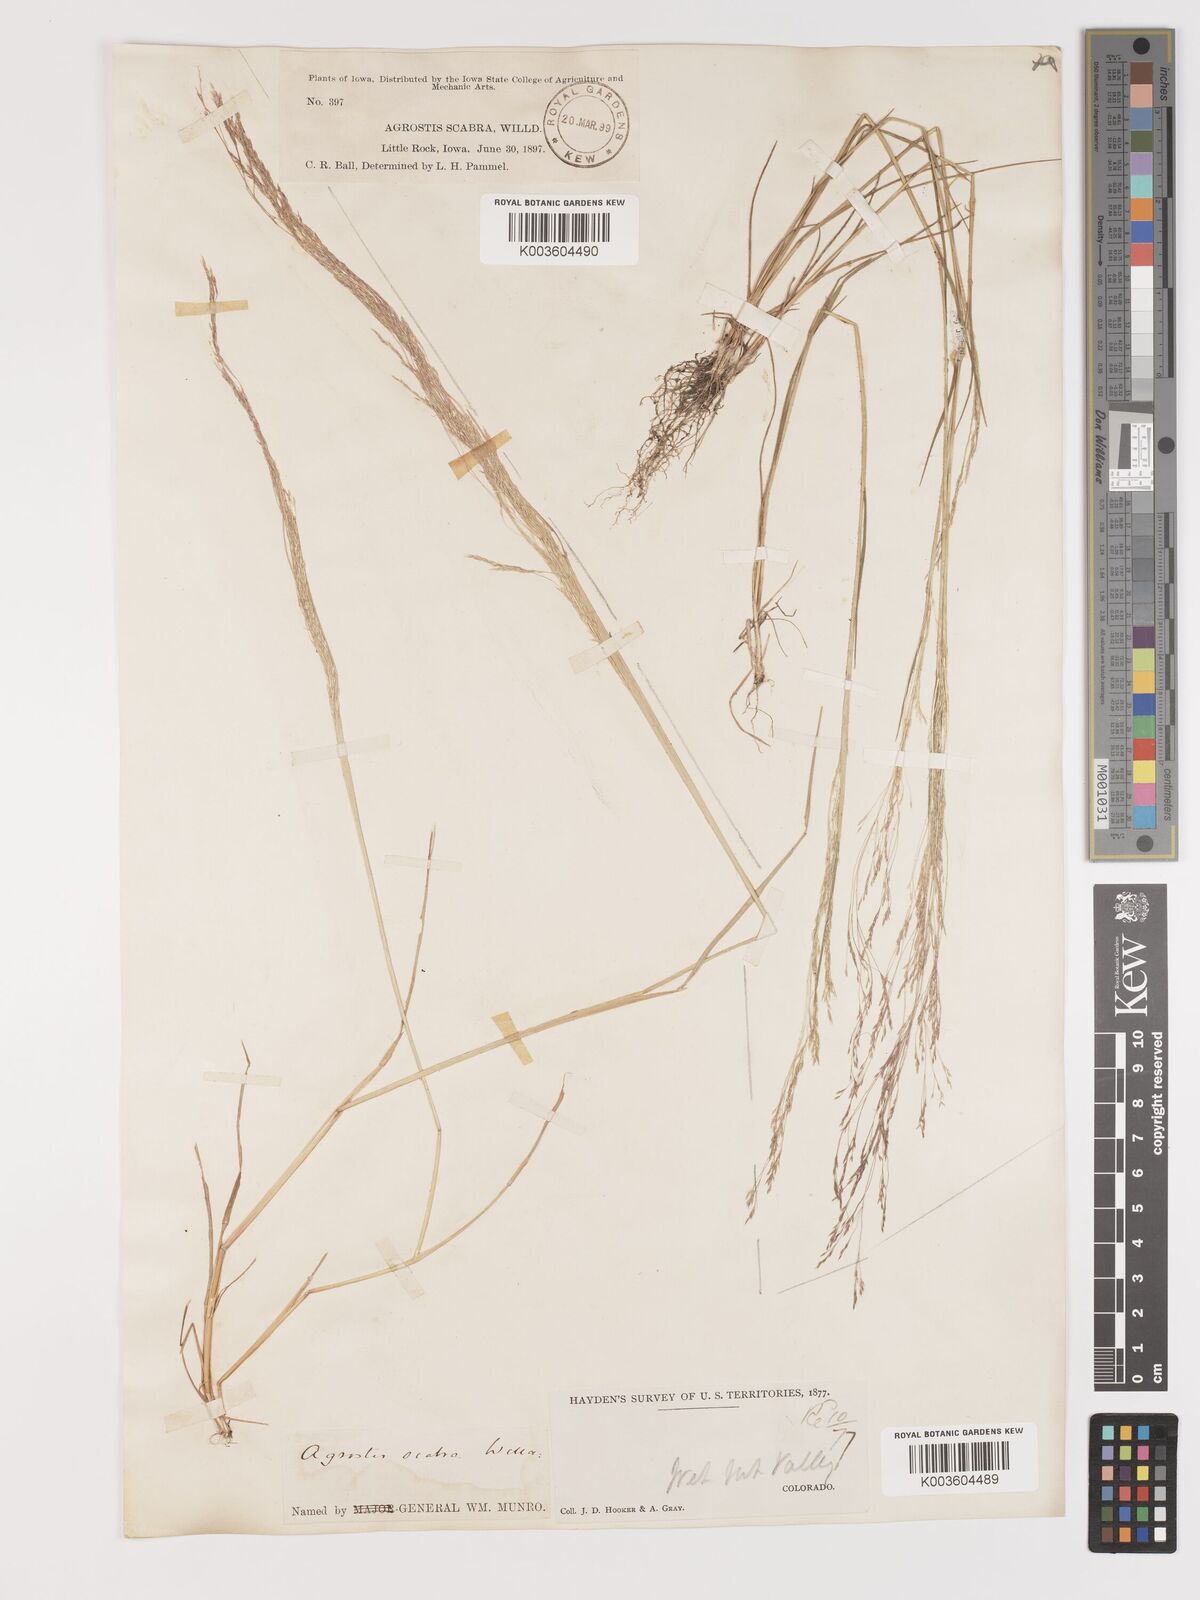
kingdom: Plantae
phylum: Tracheophyta
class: Liliopsida
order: Poales
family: Poaceae
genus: Agrostis
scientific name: Agrostis hyemalis
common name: Small bent
